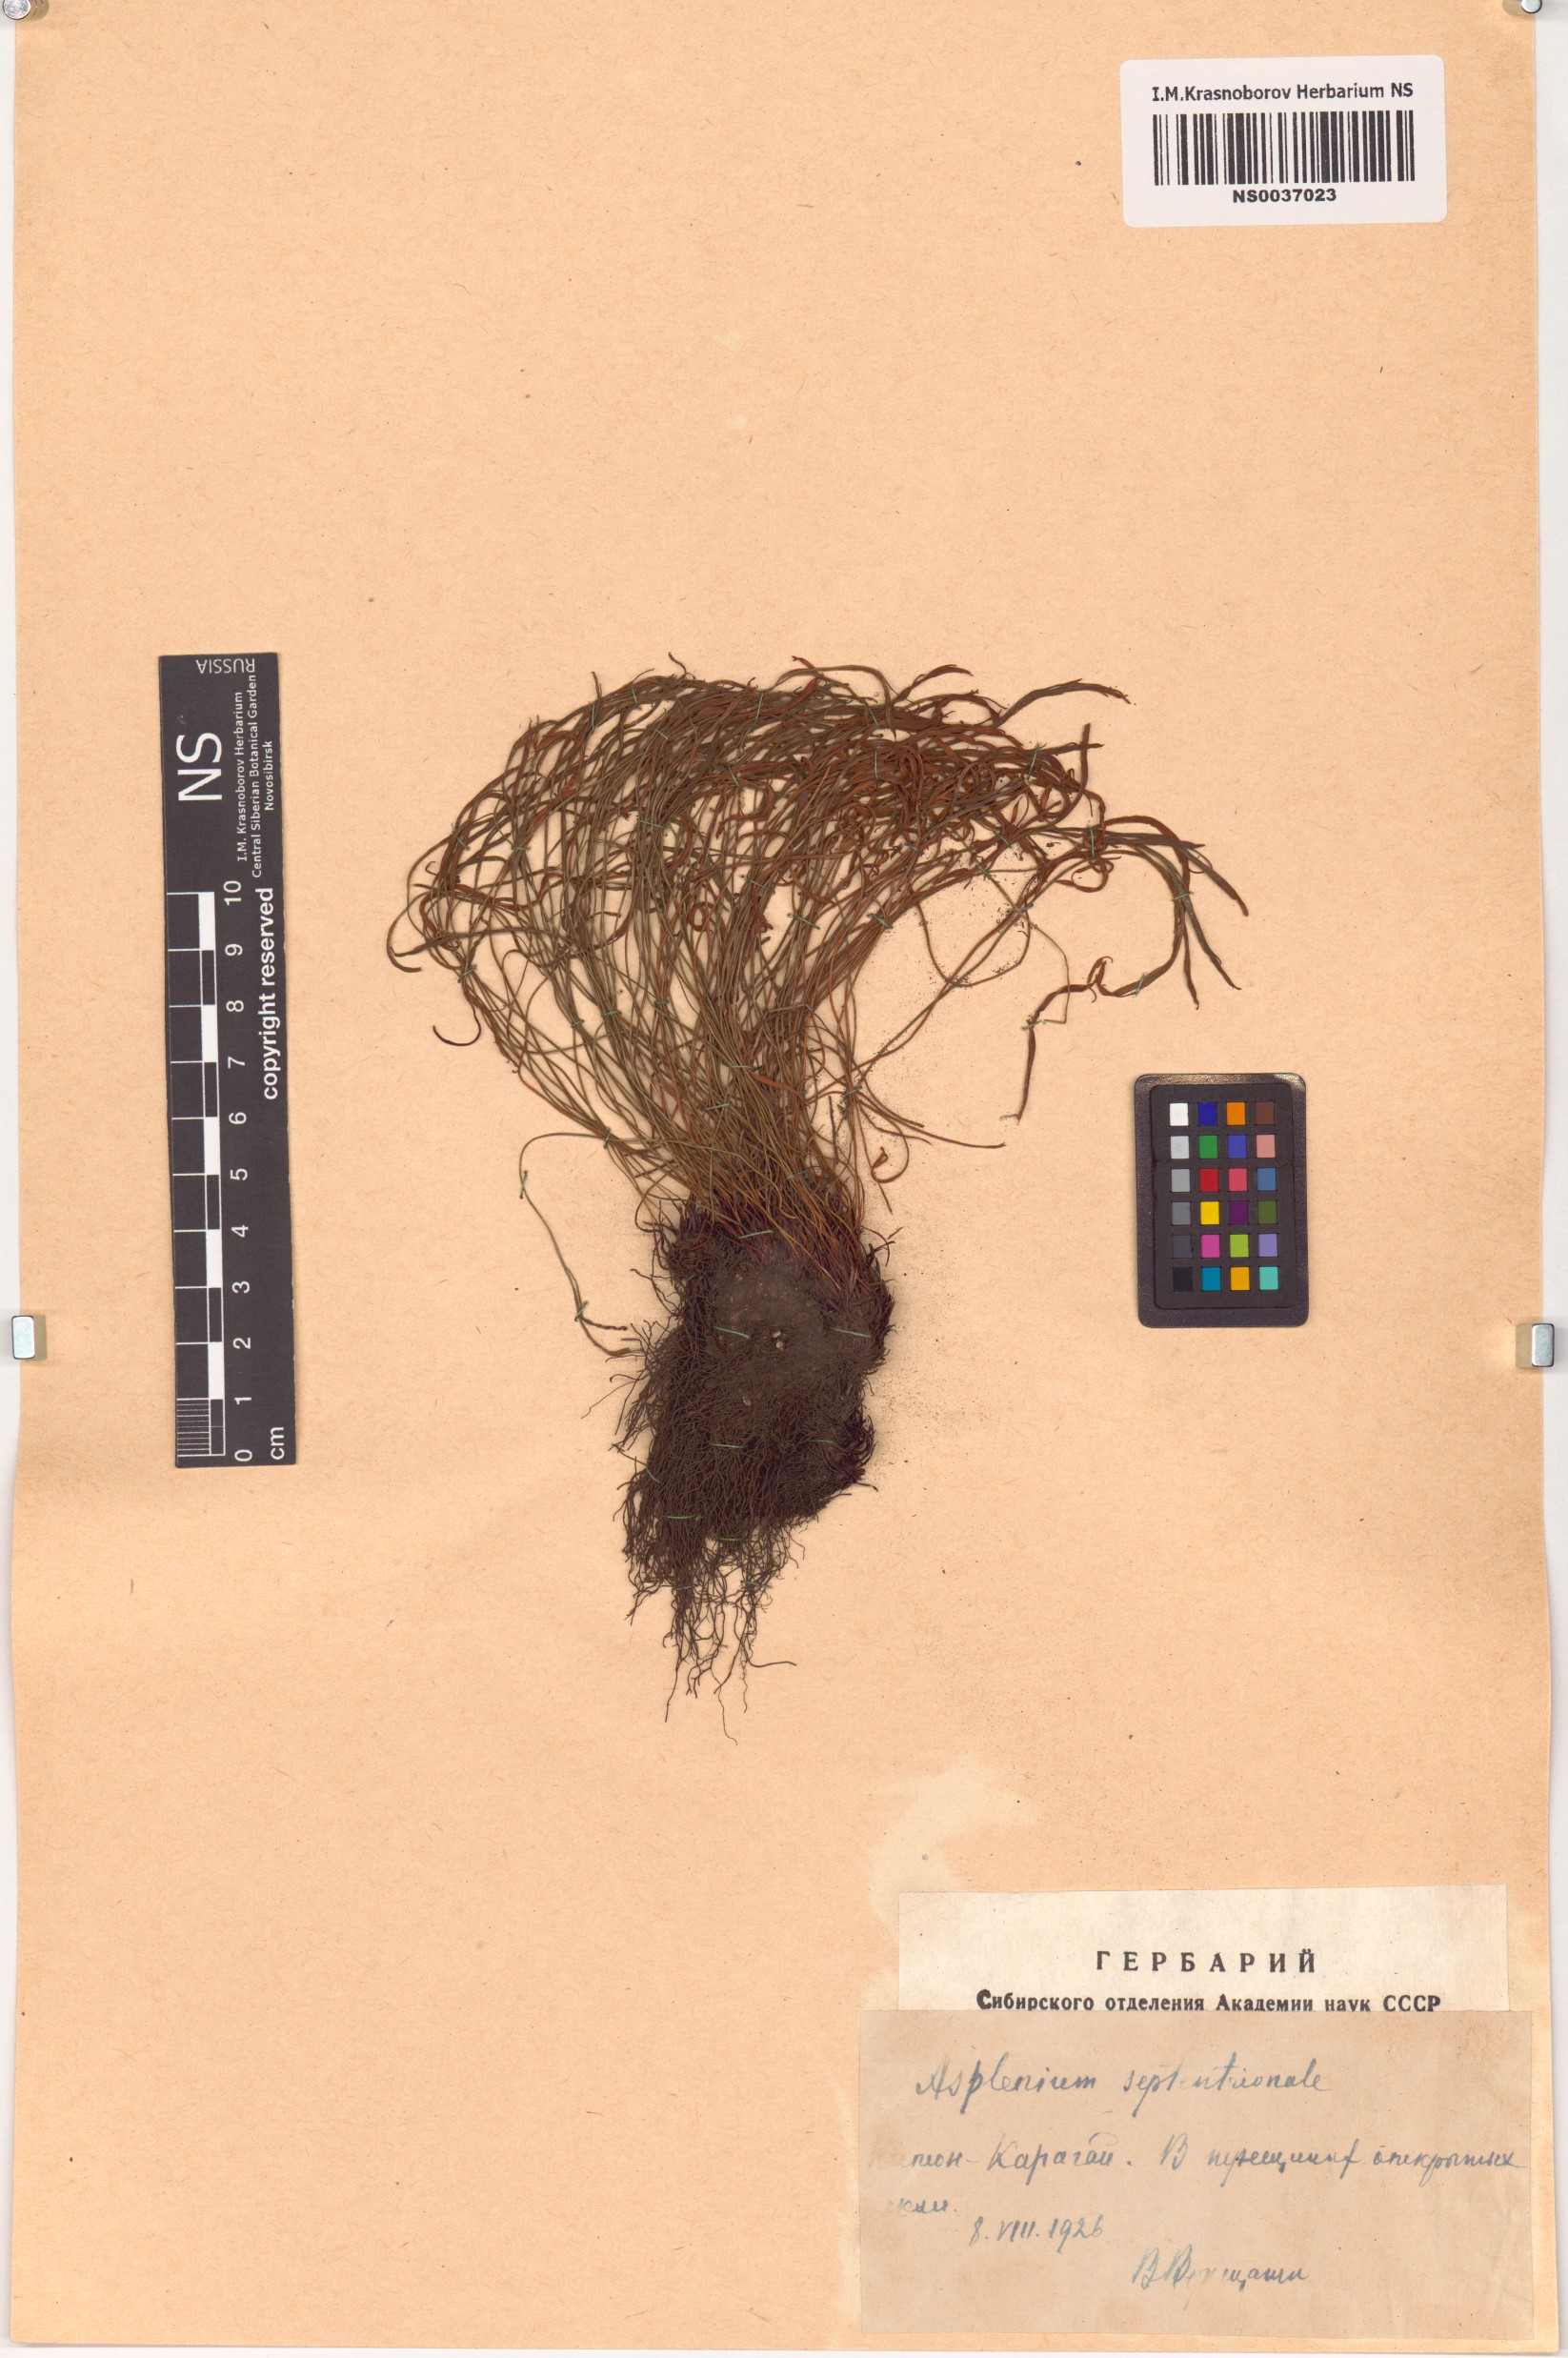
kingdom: Plantae
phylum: Tracheophyta
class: Polypodiopsida
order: Polypodiales
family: Aspleniaceae
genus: Asplenium
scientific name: Asplenium septentrionale
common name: Forked spleenwort
